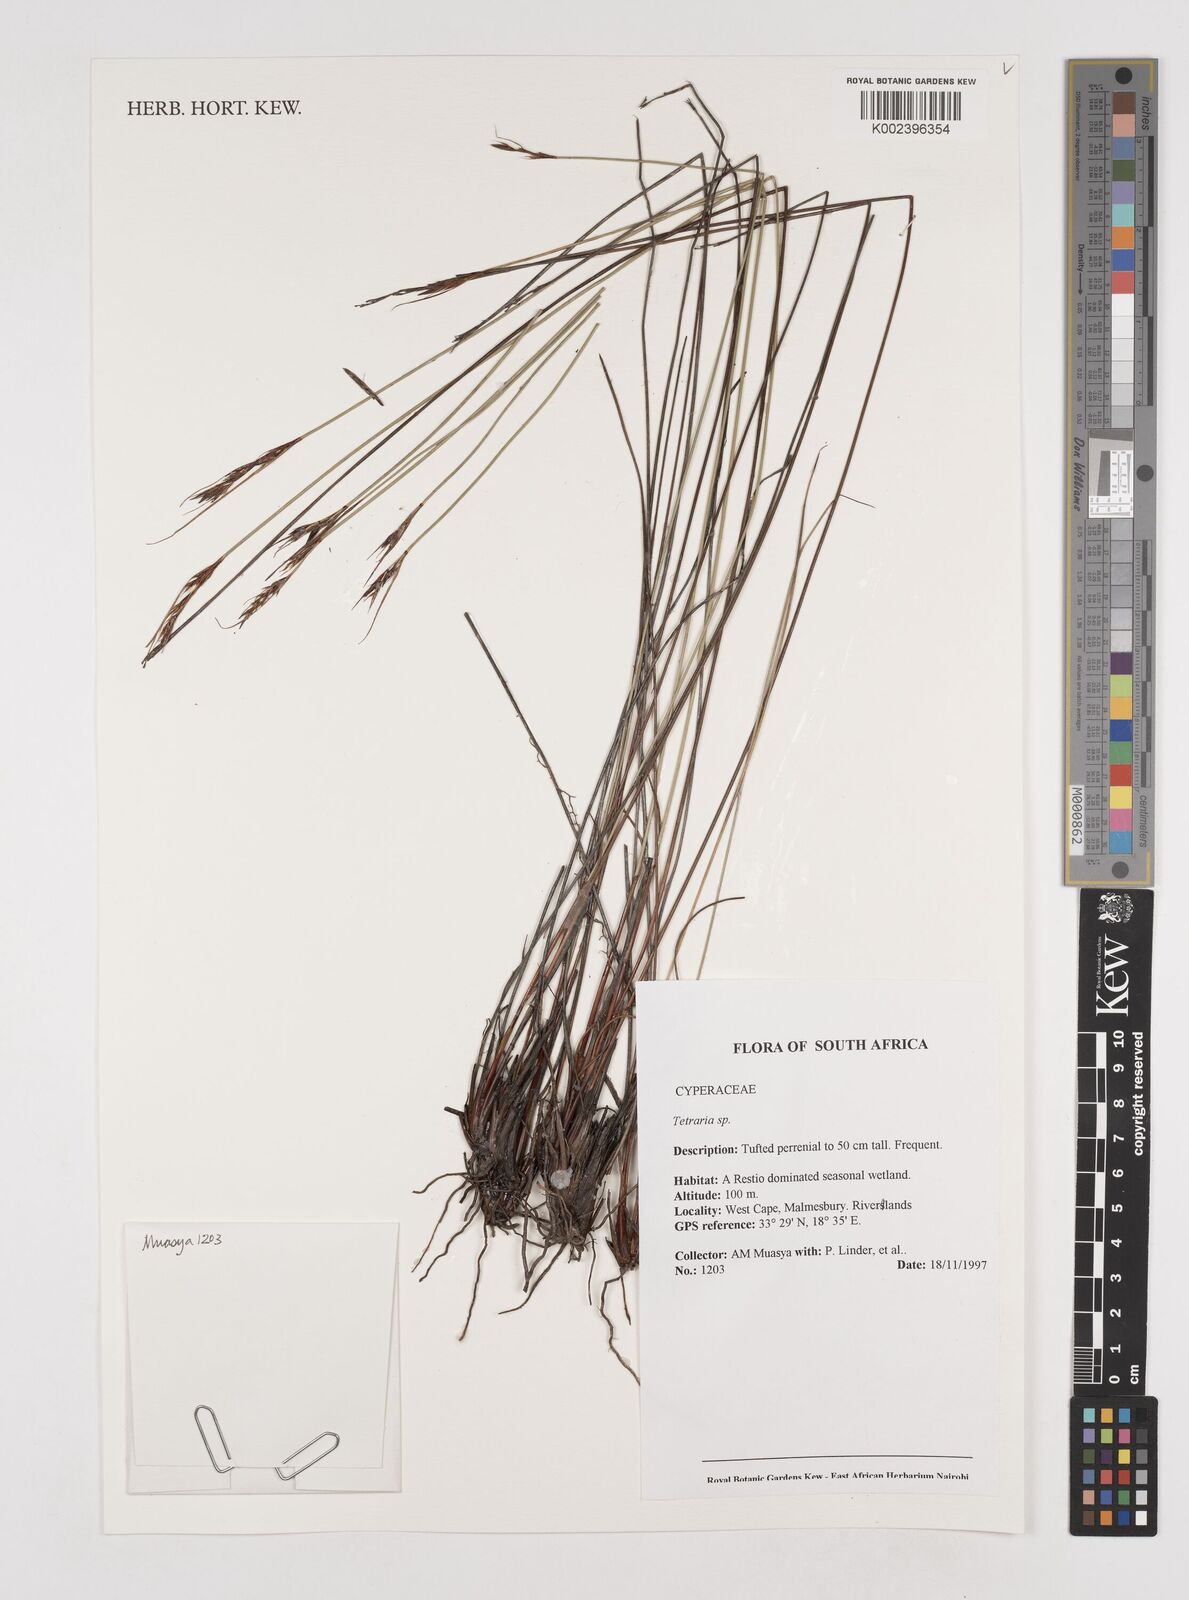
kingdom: Plantae
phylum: Tracheophyta
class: Liliopsida
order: Poales
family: Cyperaceae
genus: Schoenus
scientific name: Schoenus cuspidatus
